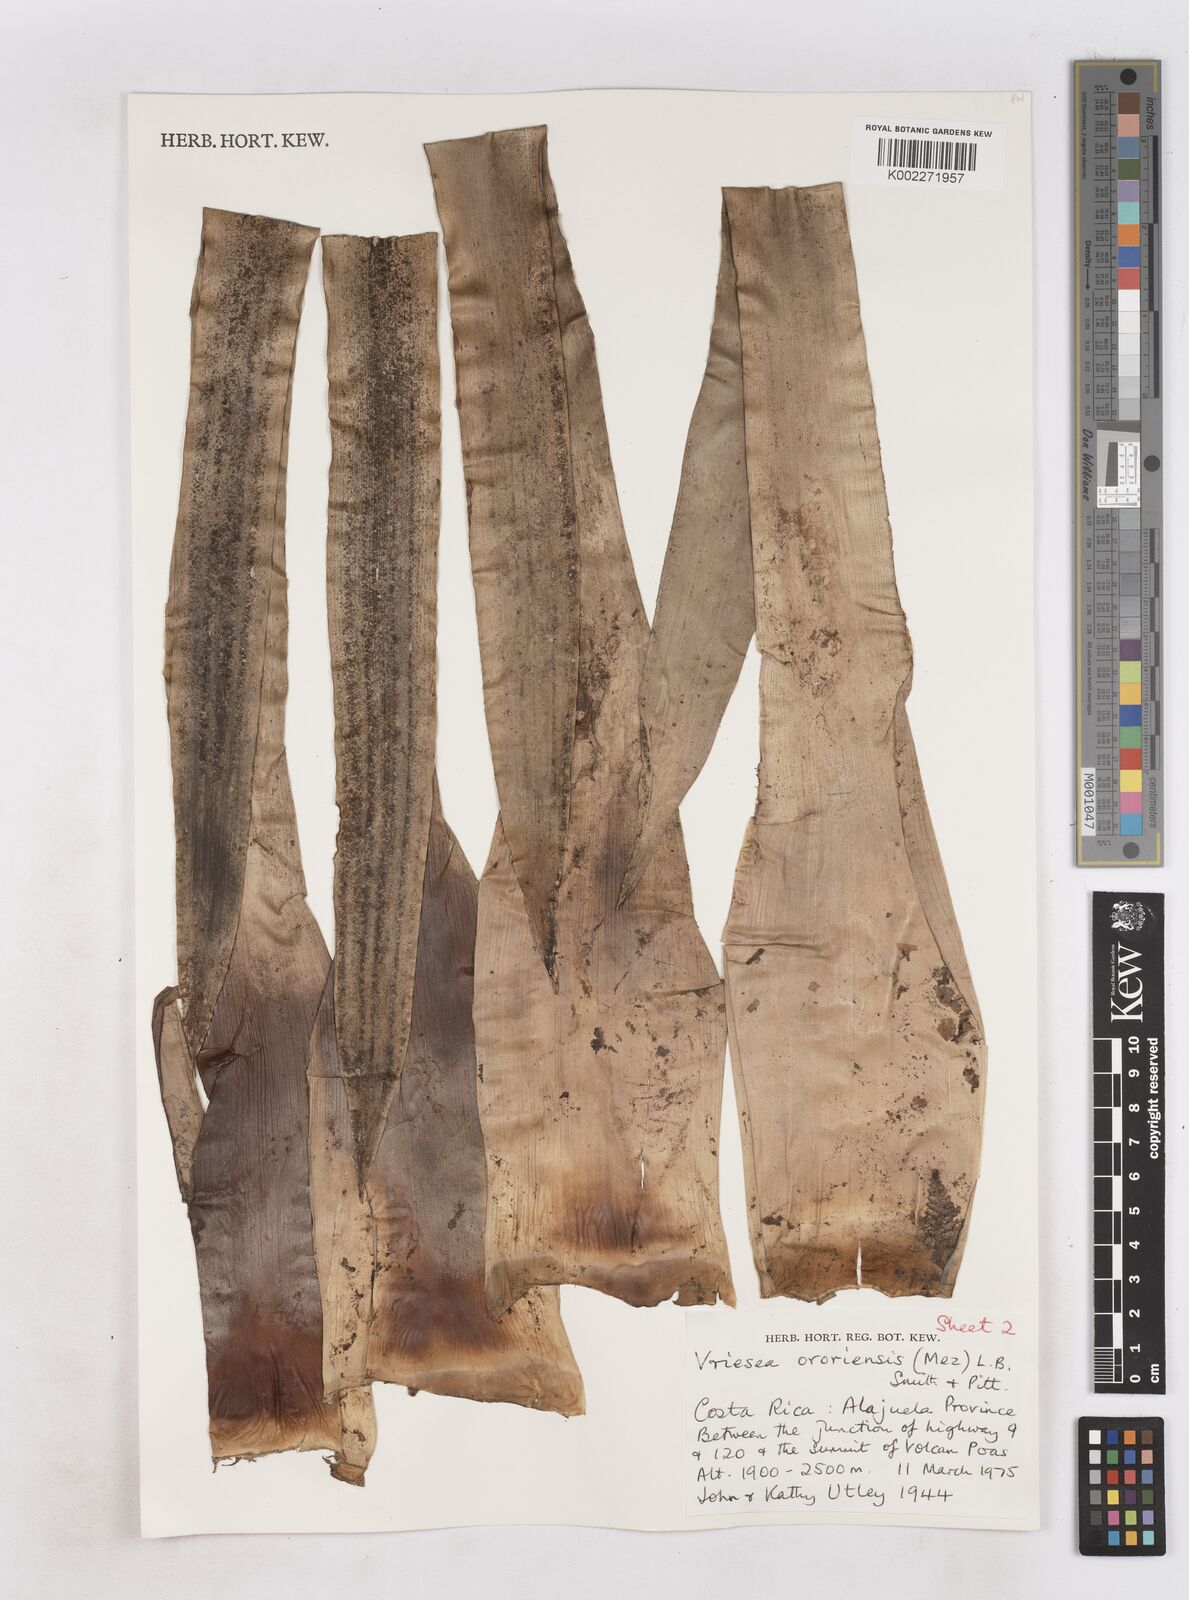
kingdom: Plantae
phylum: Tracheophyta
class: Liliopsida
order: Poales
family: Bromeliaceae
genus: Werauhia
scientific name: Werauhia ororiensis
